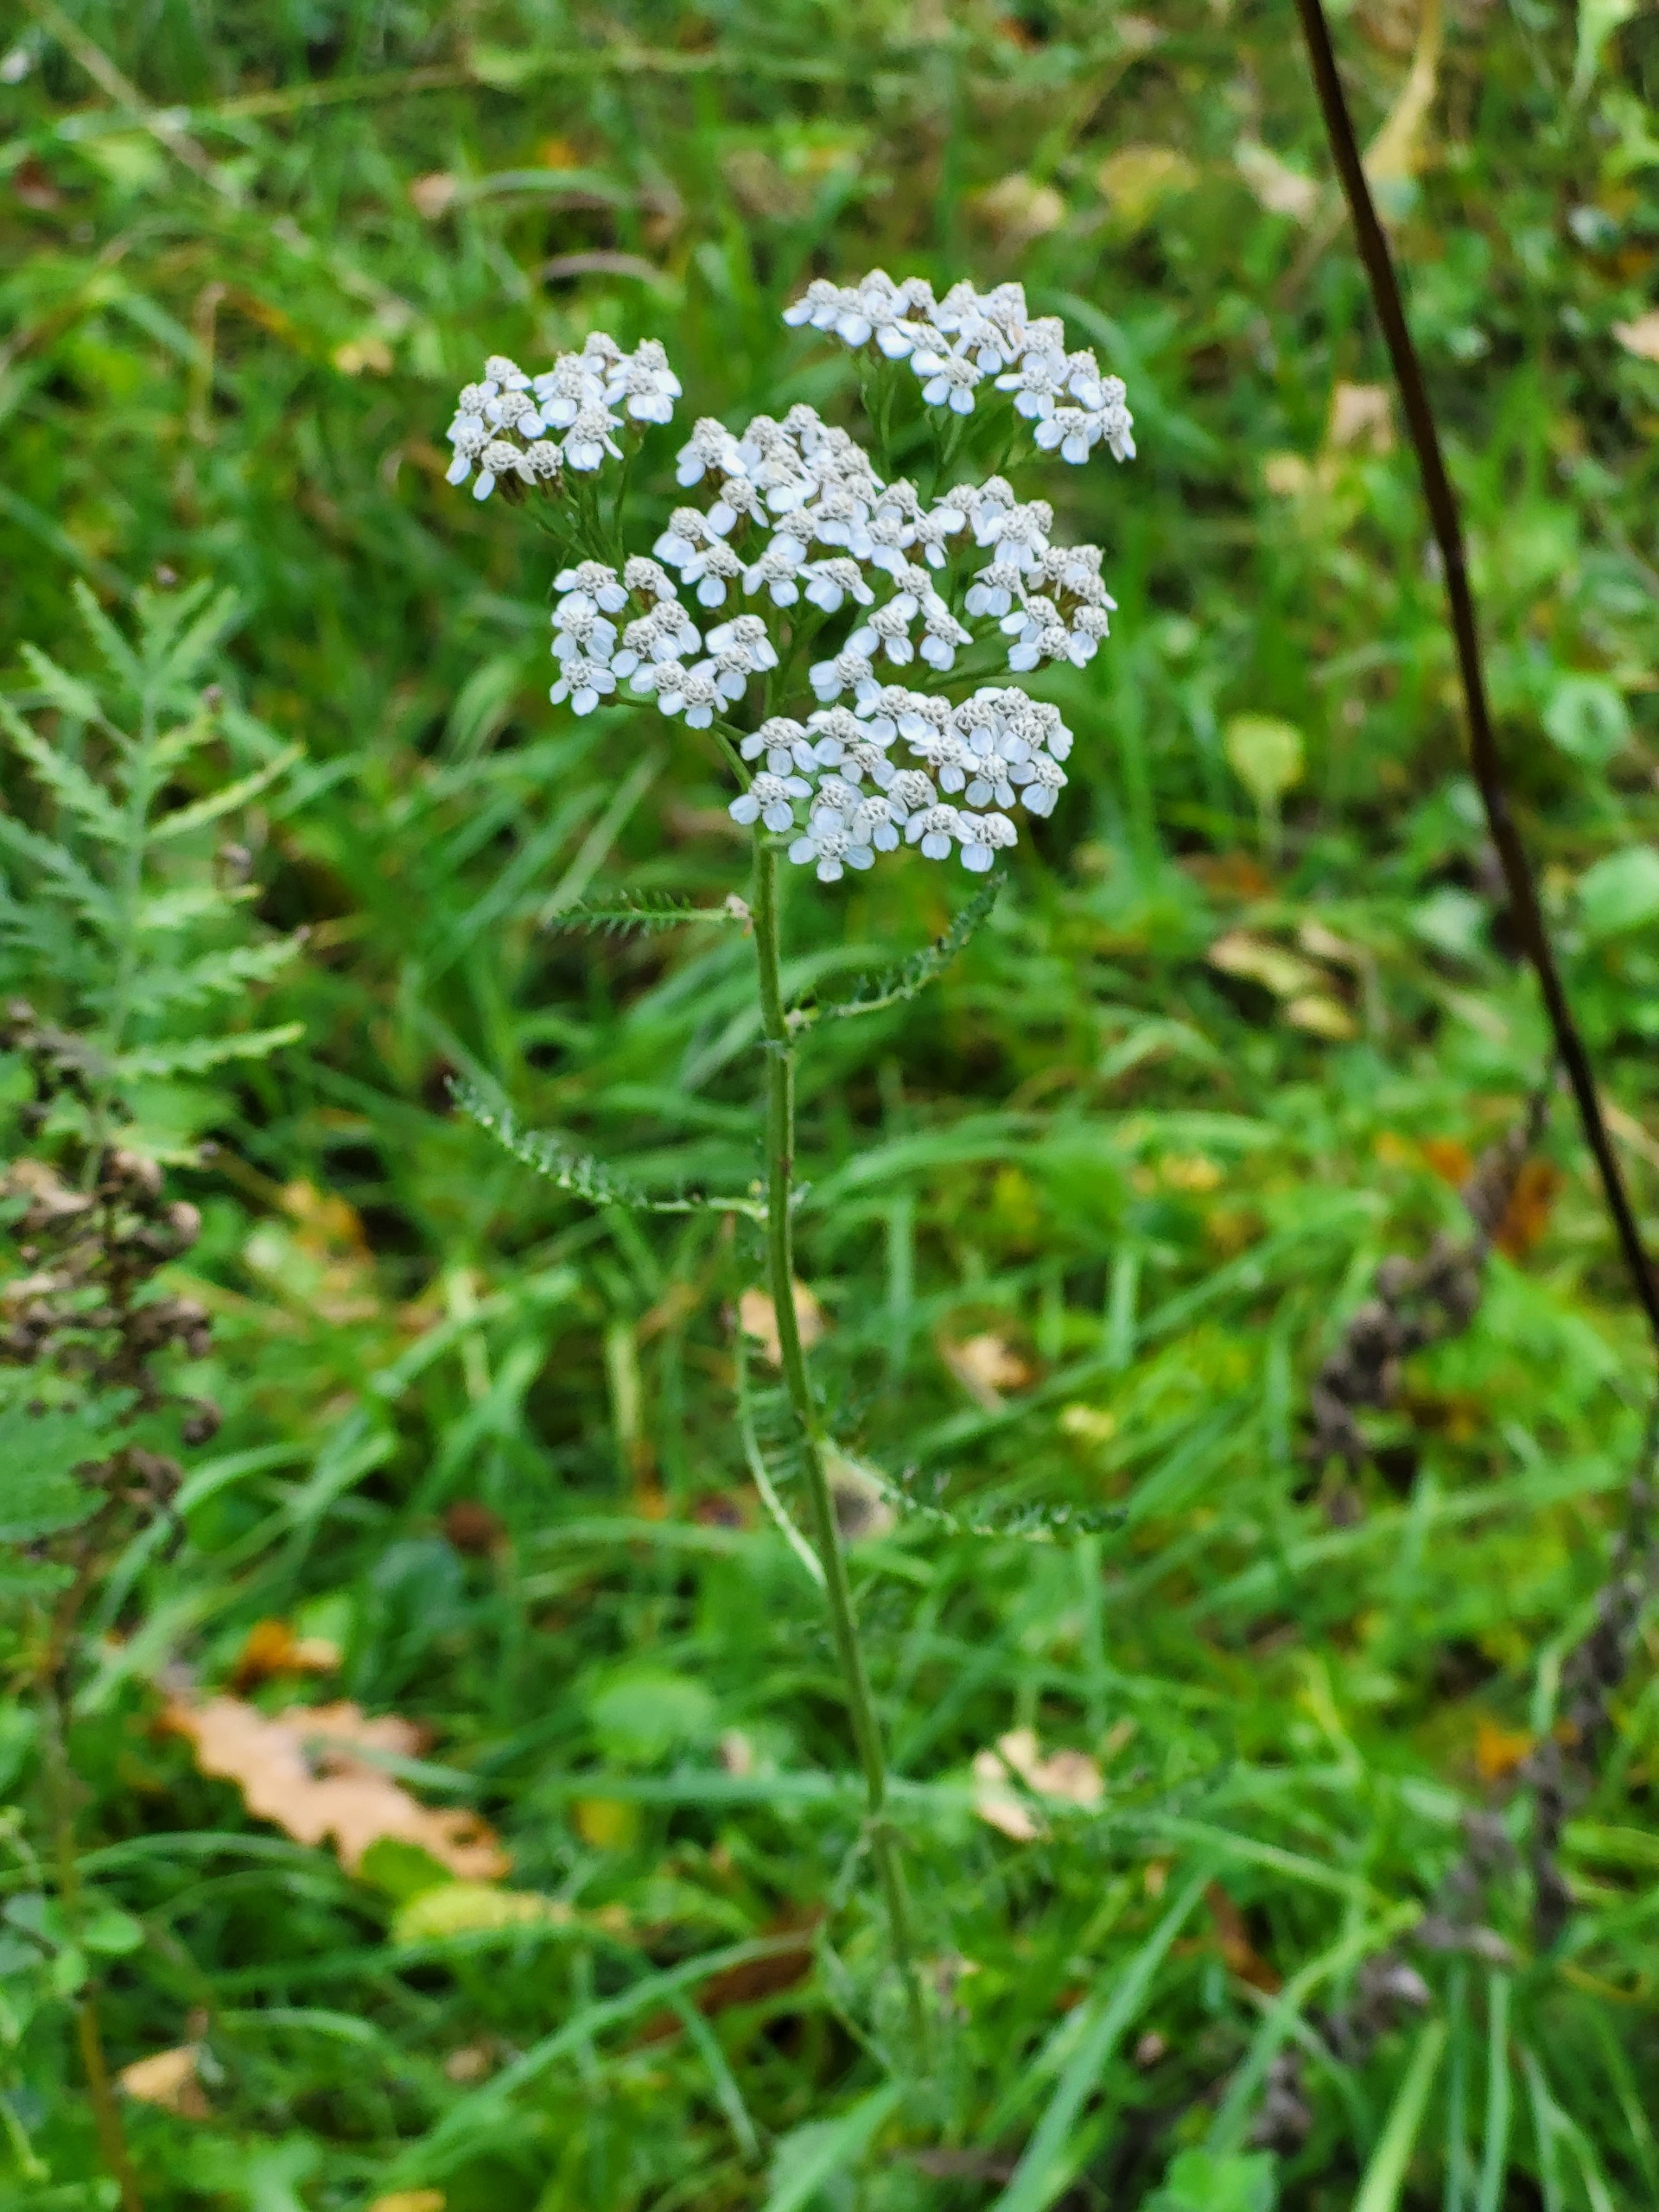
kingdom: Plantae
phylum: Tracheophyta
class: Magnoliopsida
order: Asterales
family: Asteraceae
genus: Achillea
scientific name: Achillea millefolium
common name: Almindelig røllike
